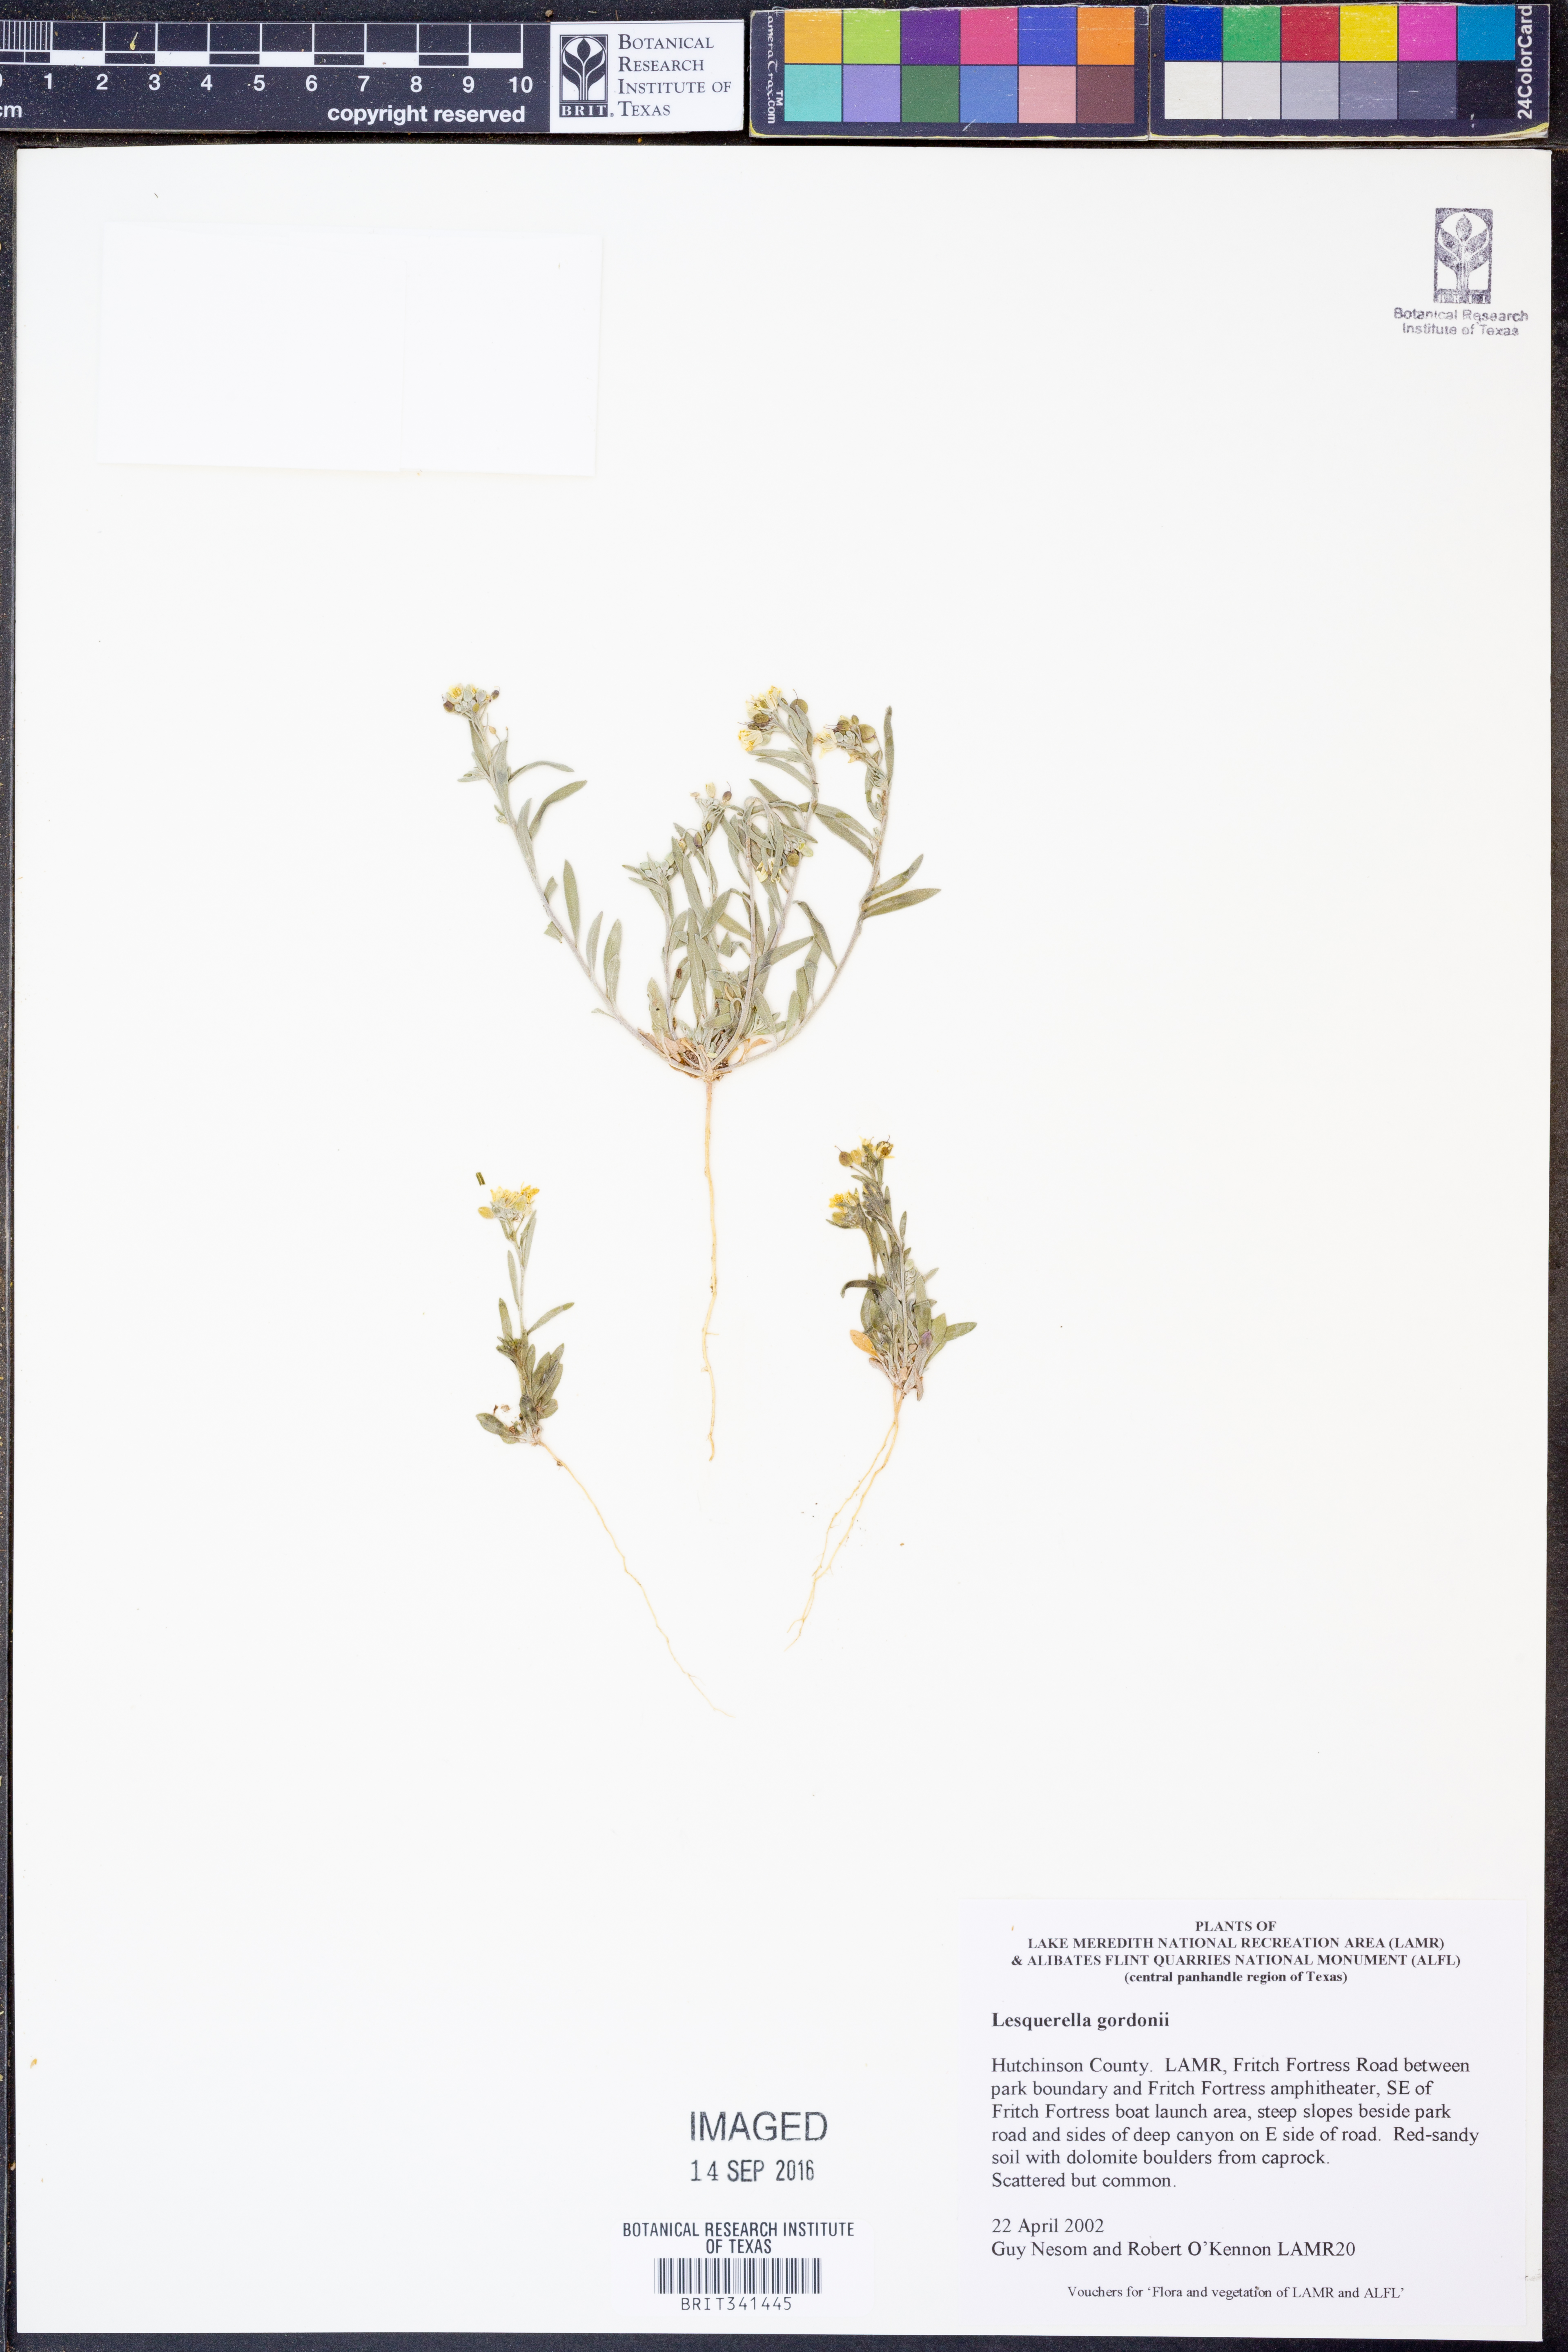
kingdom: Plantae
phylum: Tracheophyta
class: Magnoliopsida
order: Brassicales
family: Brassicaceae
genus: Physaria
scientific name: Physaria gordonii
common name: Gordon's bladderpod
